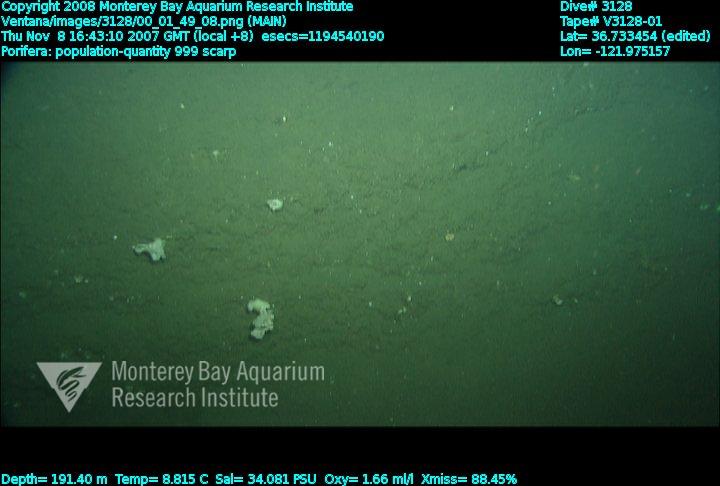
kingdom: Animalia
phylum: Porifera
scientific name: Porifera
